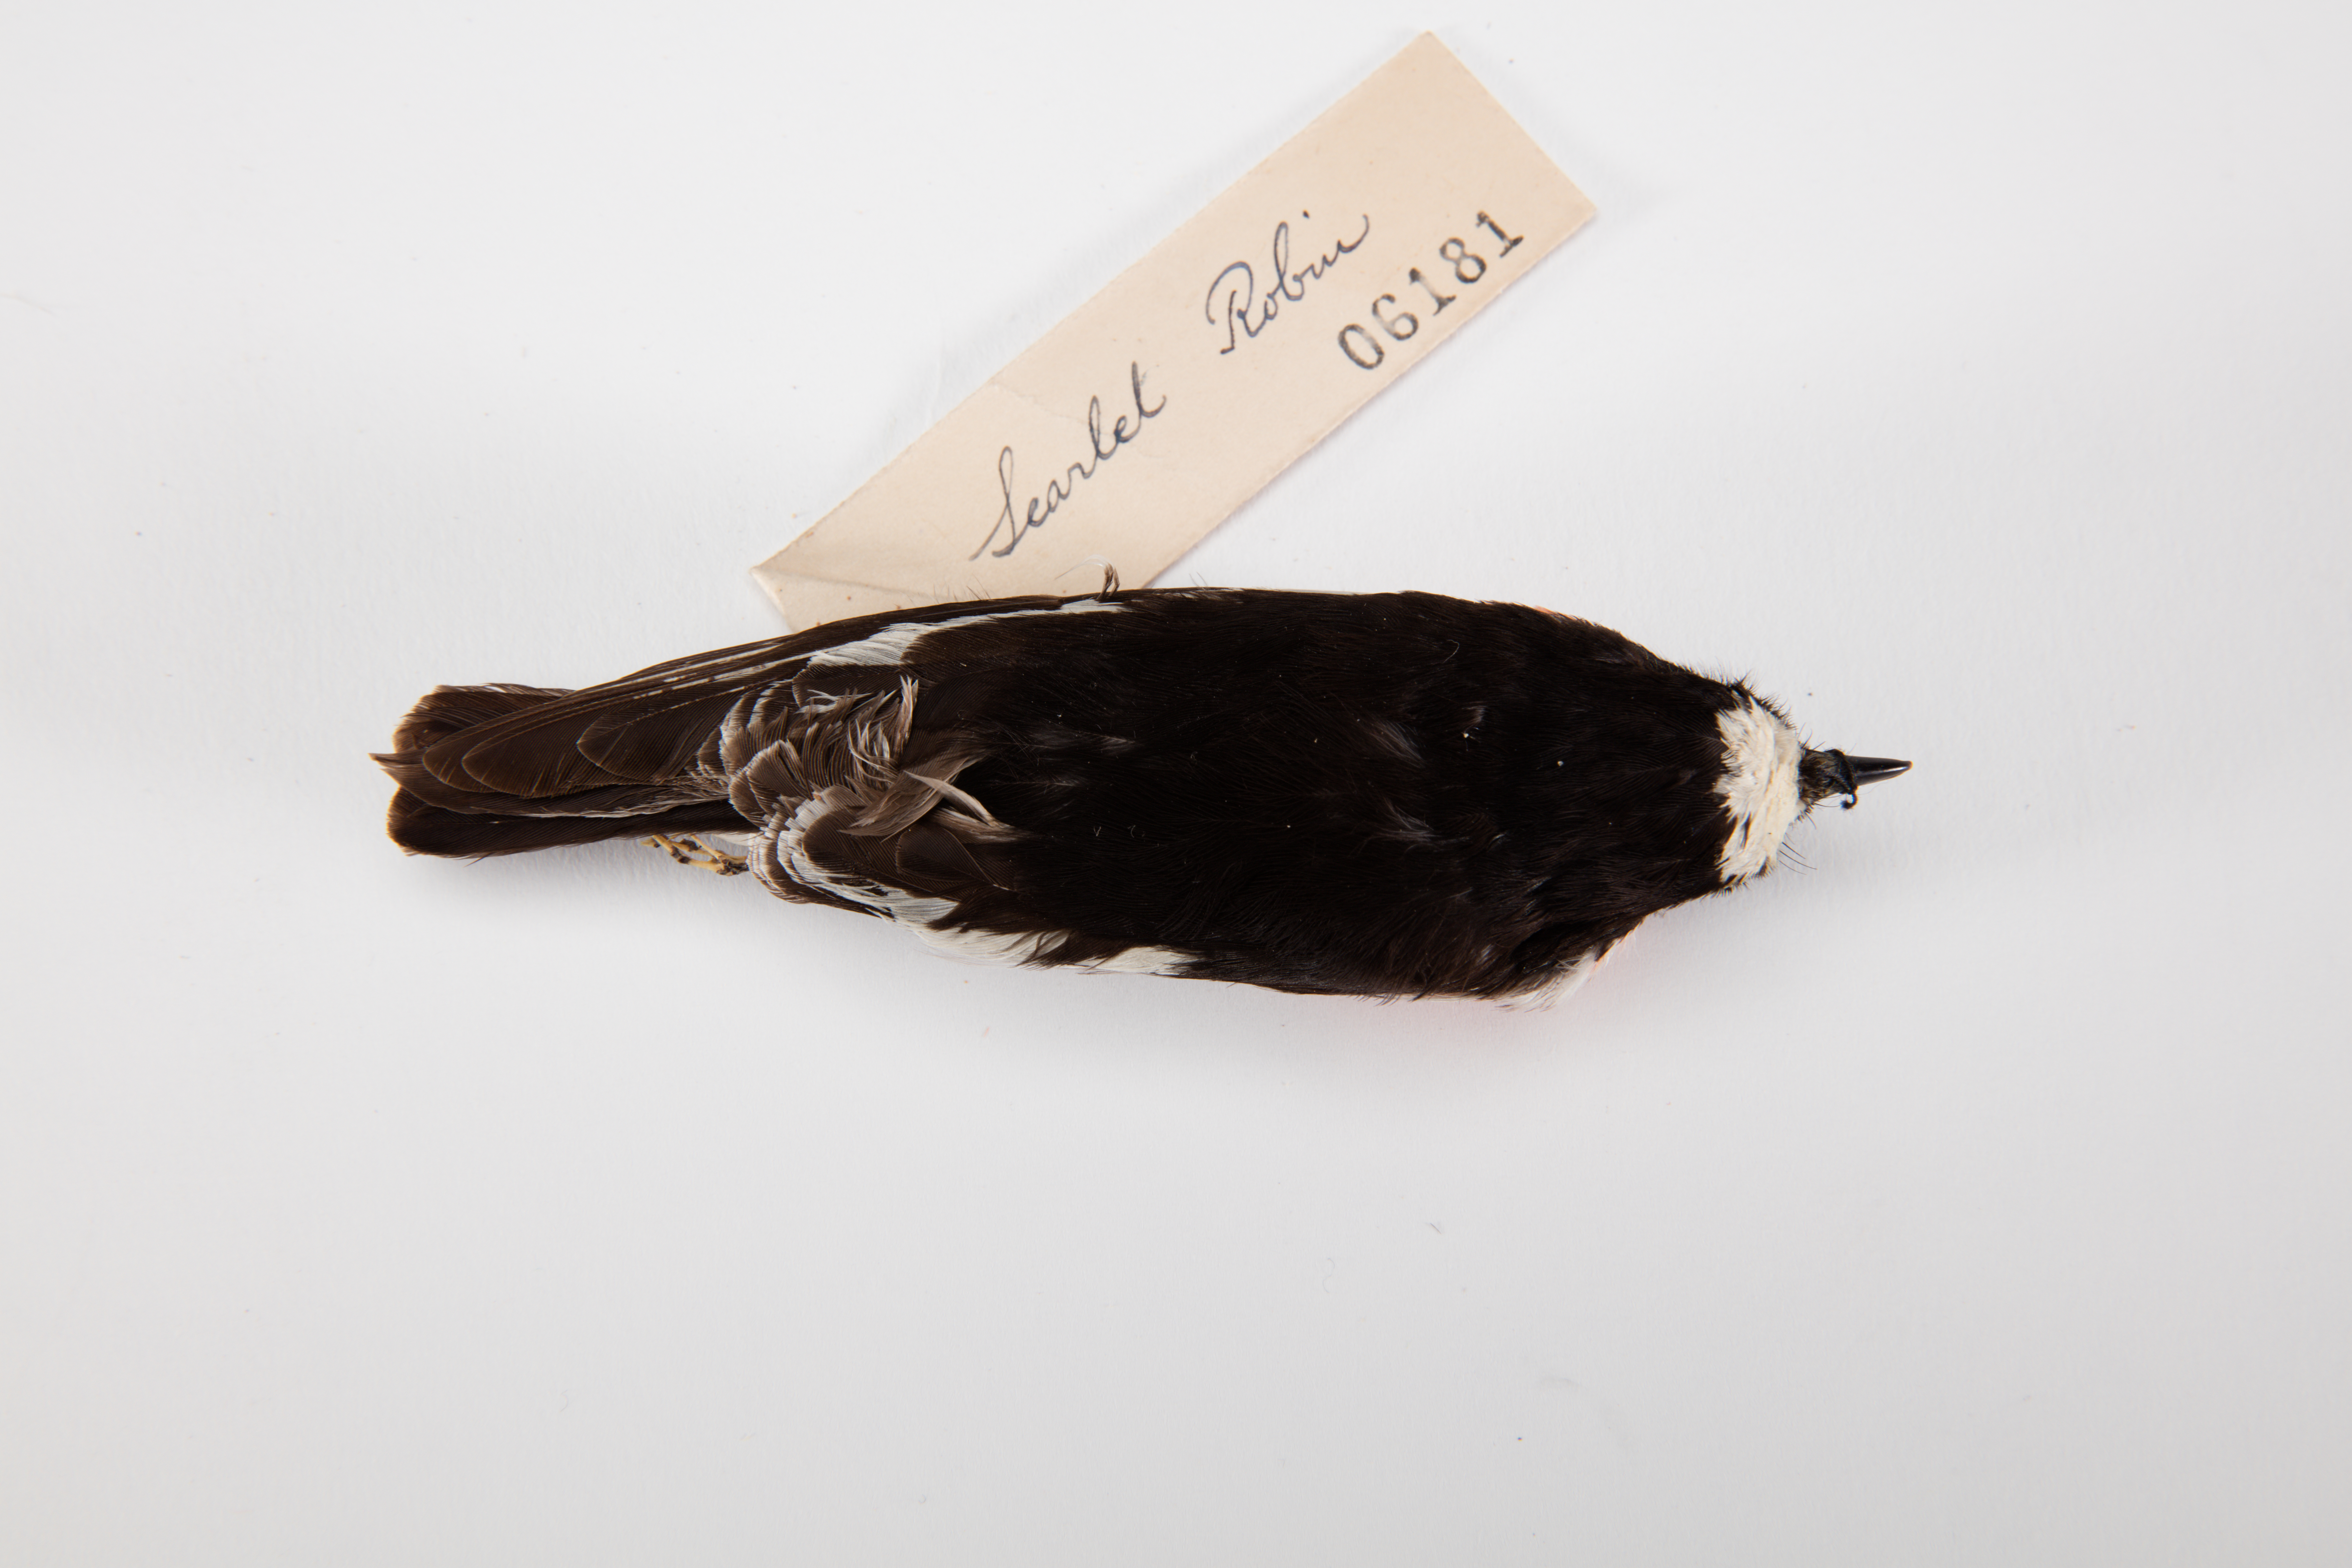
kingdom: Animalia
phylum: Chordata
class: Aves
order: Passeriformes
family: Petroicidae
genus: Petroica
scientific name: Petroica multicolor
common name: Pacific robin
